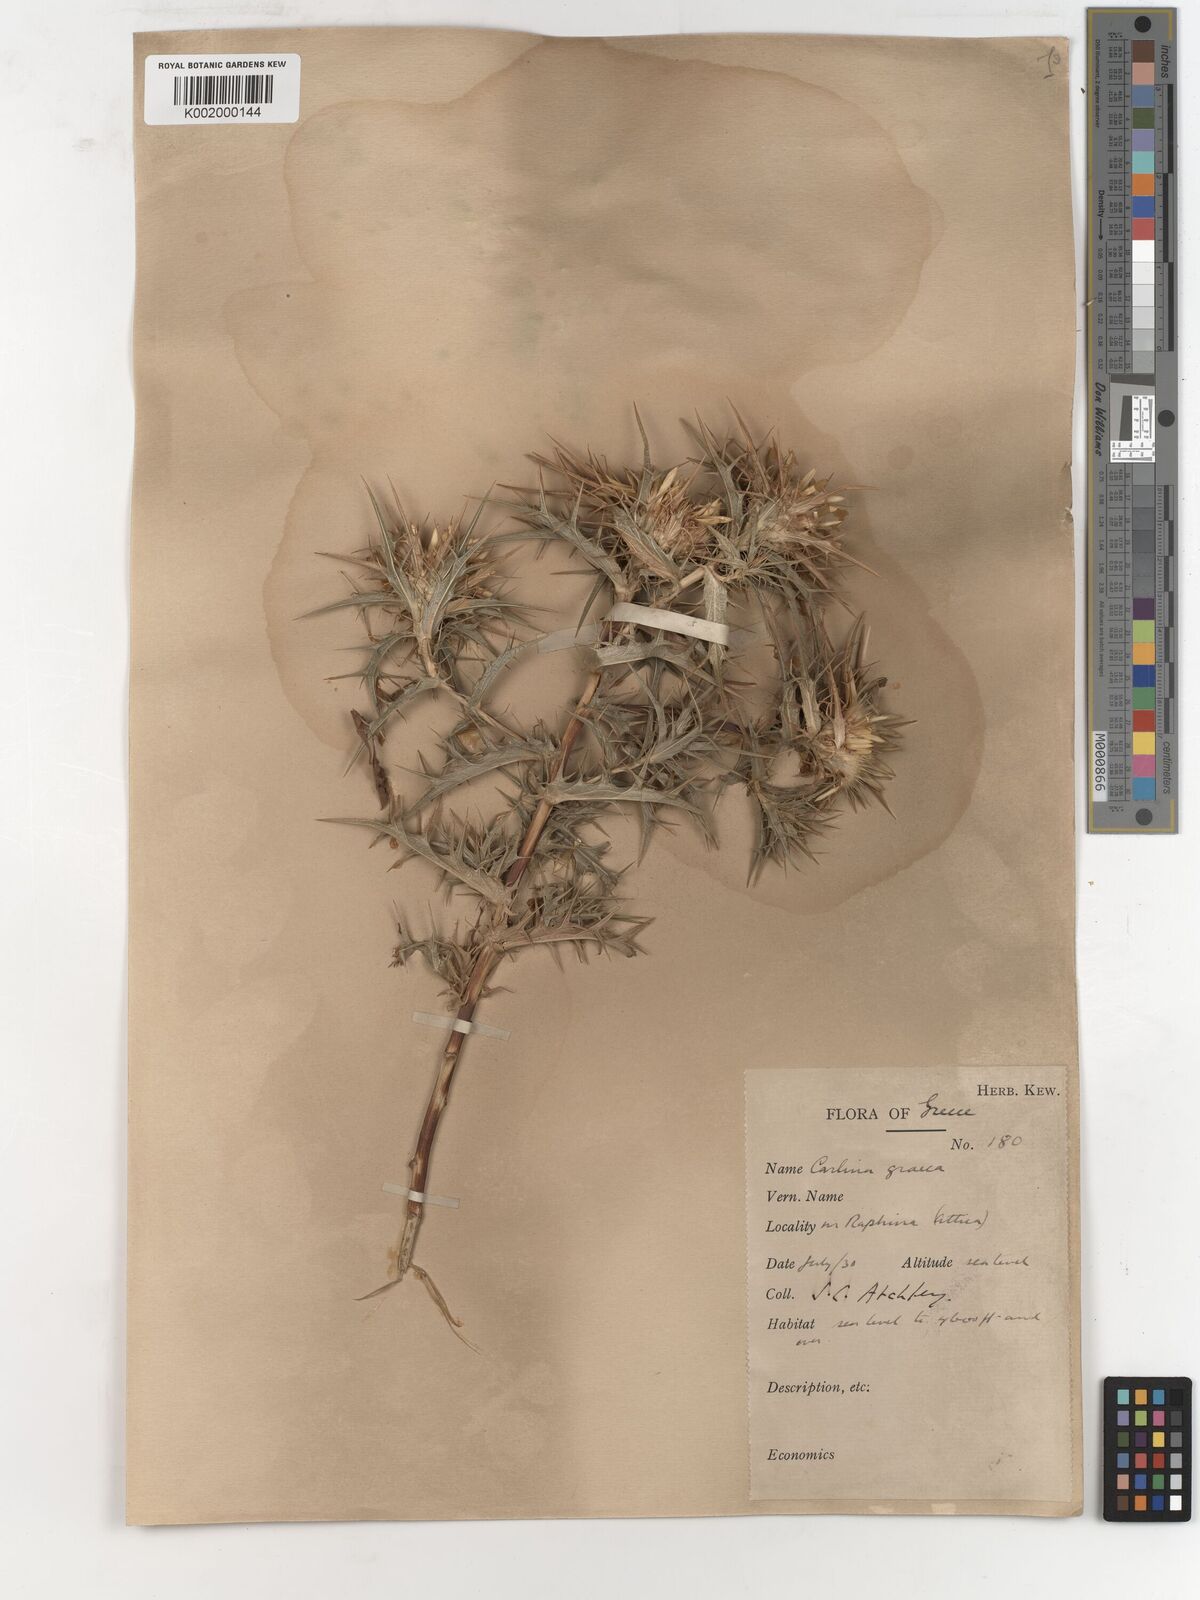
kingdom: Plantae
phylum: Tracheophyta
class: Magnoliopsida
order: Asterales
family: Asteraceae
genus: Carlina
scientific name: Carlina corymbosa
